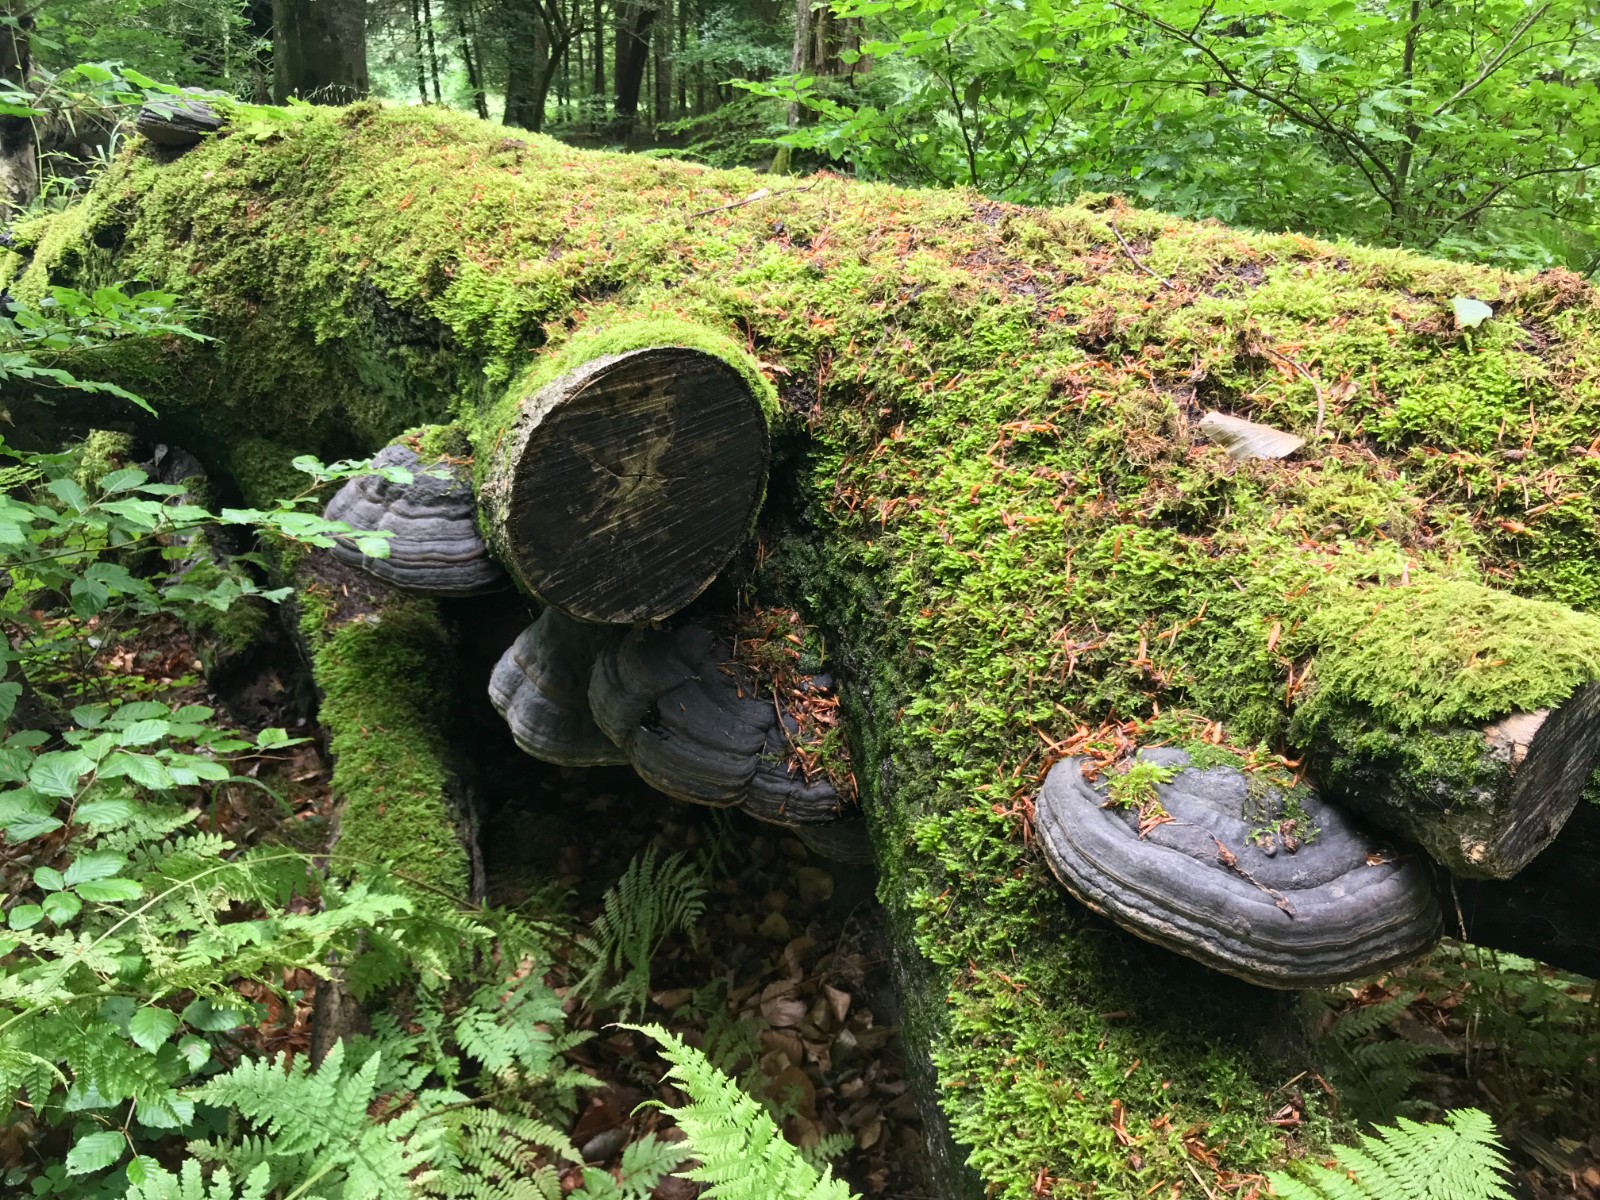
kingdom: Fungi
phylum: Basidiomycota
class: Agaricomycetes
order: Polyporales
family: Polyporaceae
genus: Fomes
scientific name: Fomes fomentarius
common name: tøndersvamp
